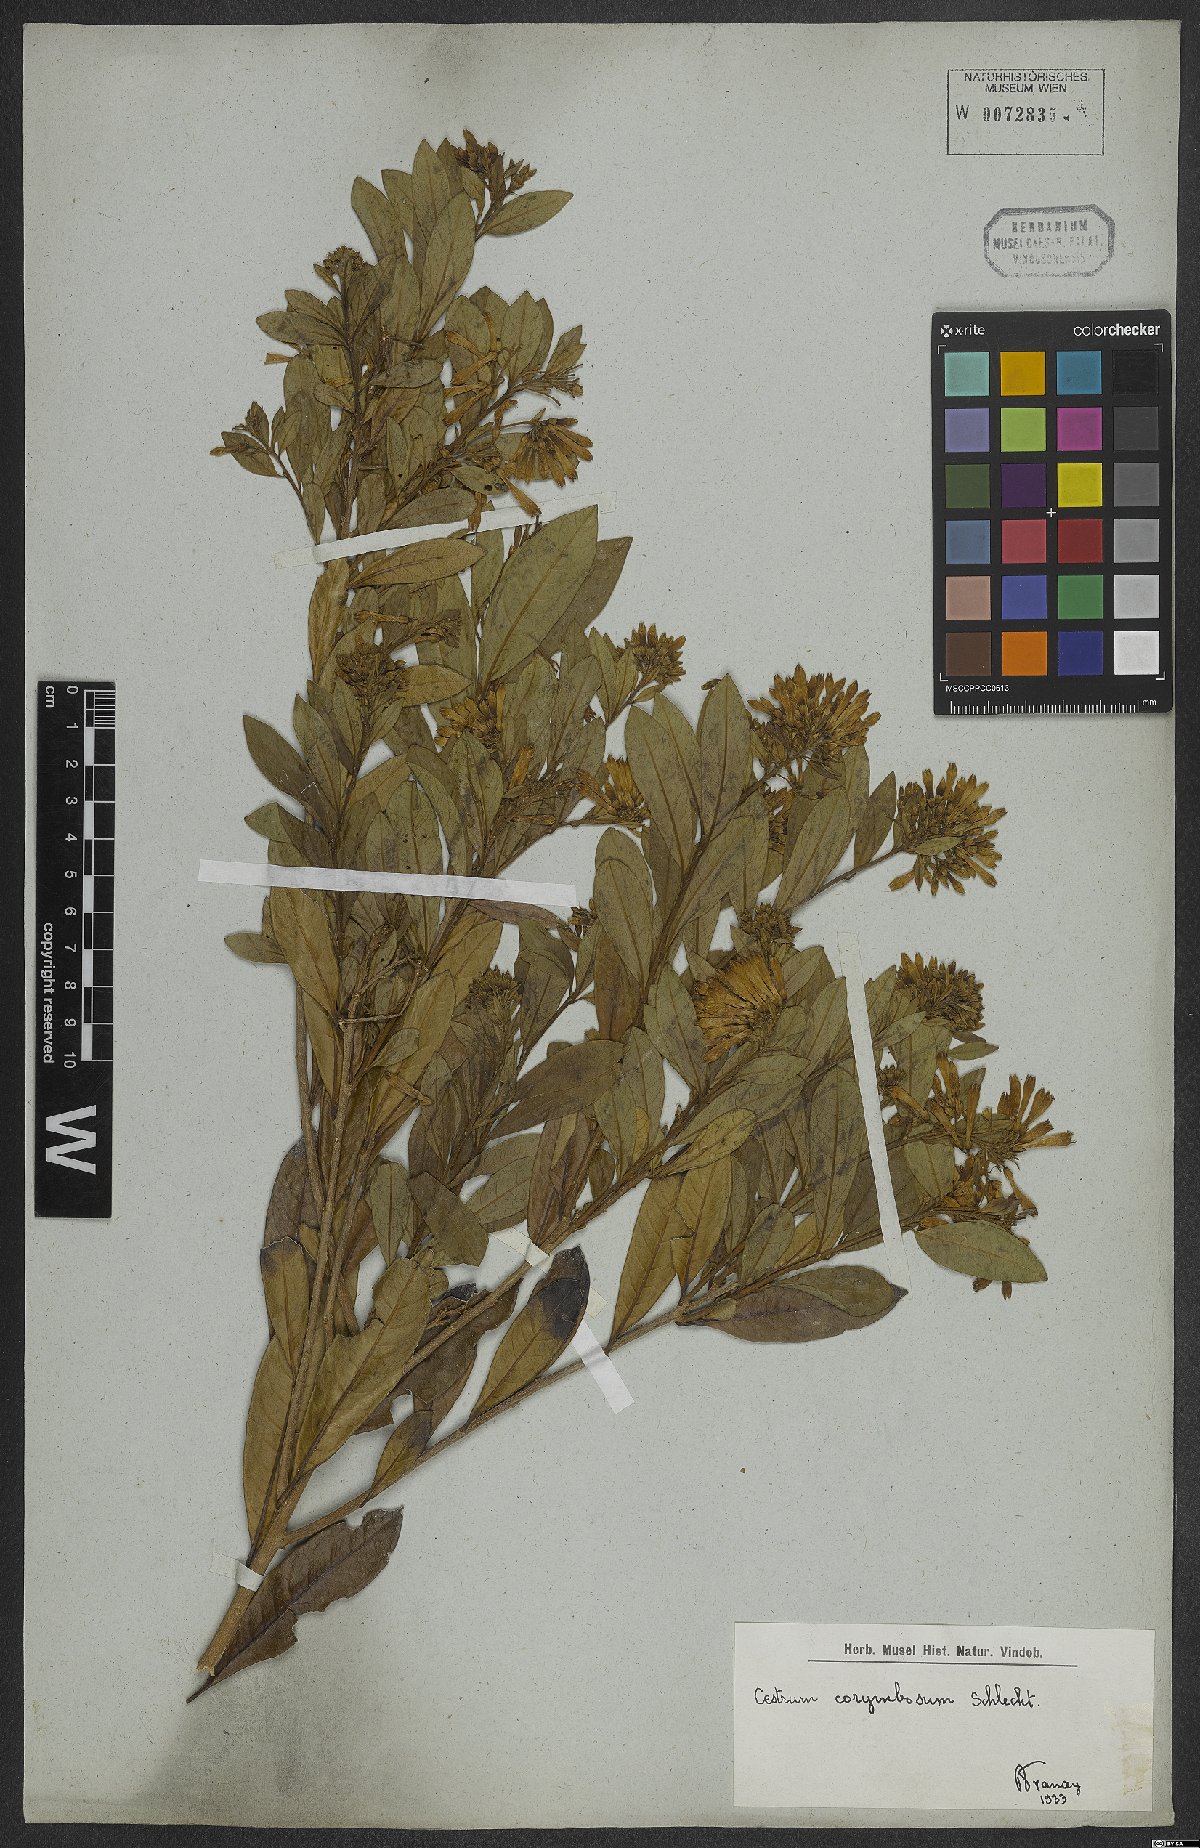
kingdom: Plantae
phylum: Tracheophyta
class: Magnoliopsida
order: Solanales
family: Solanaceae
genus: Cestrum
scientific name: Cestrum corymbosum
